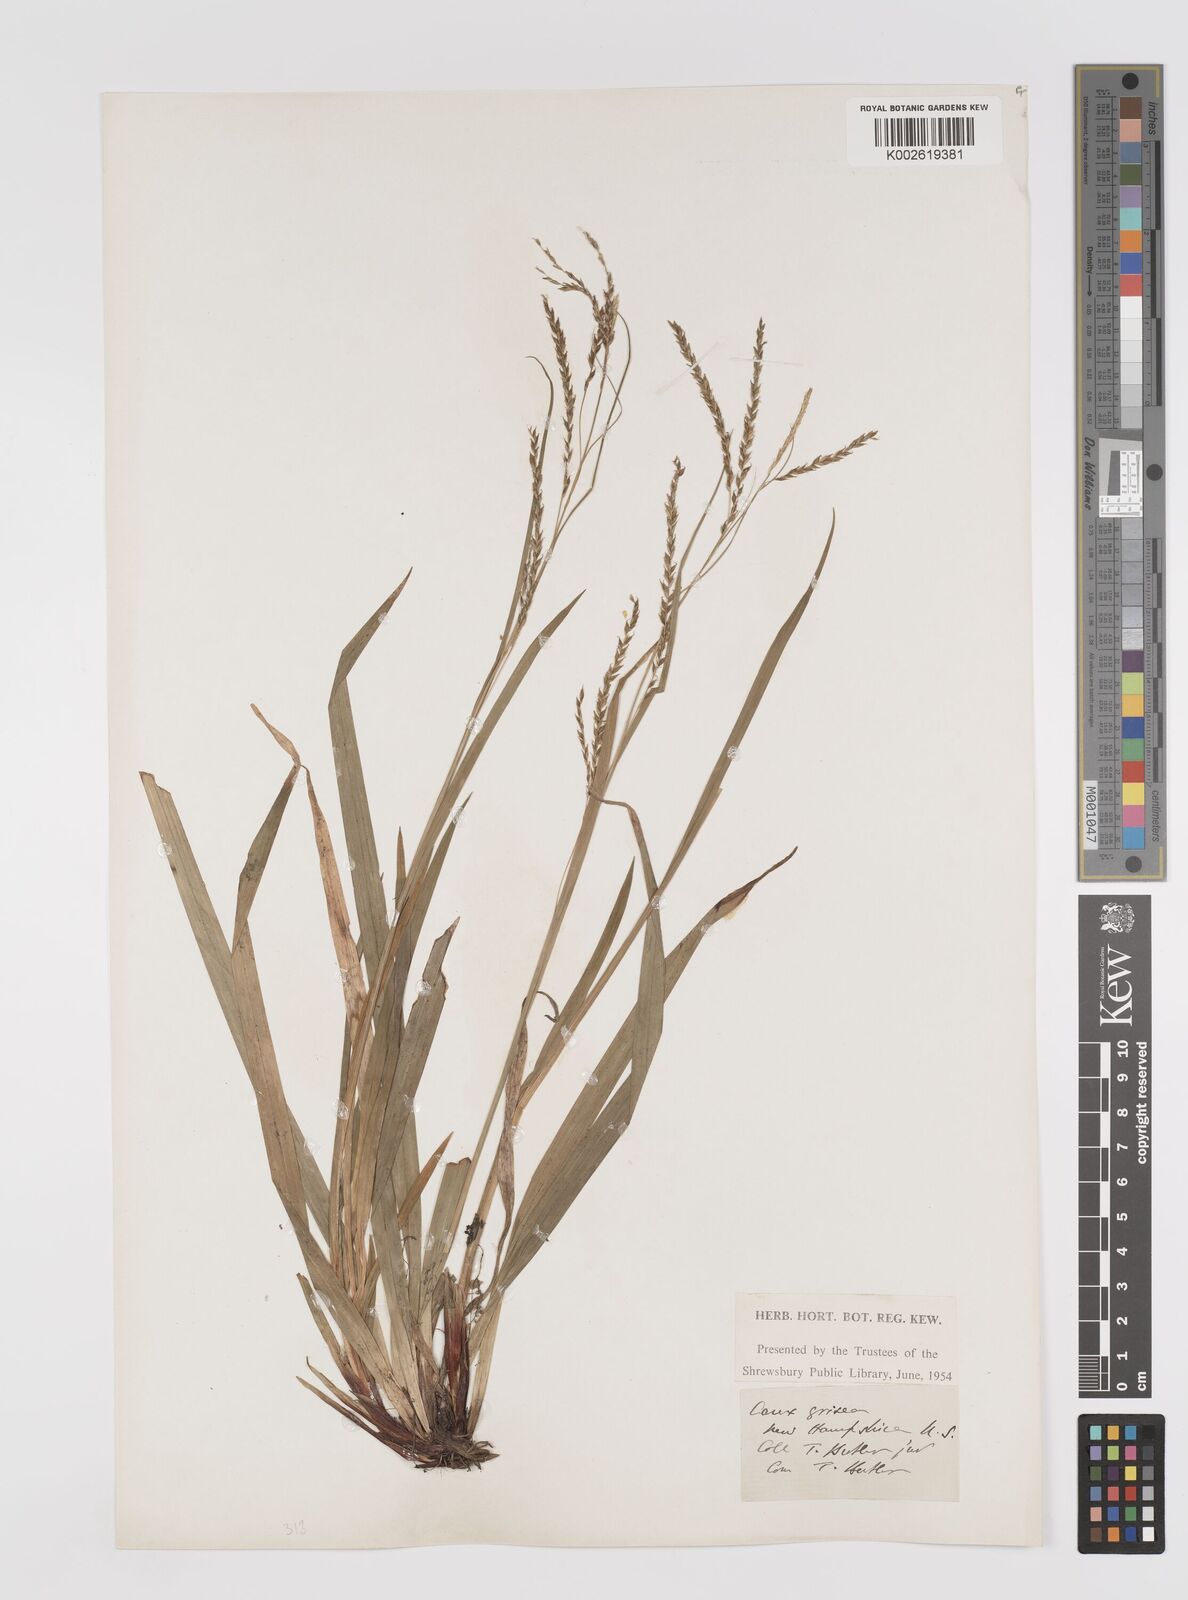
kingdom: Plantae
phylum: Tracheophyta
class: Liliopsida
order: Poales
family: Cyperaceae
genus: Carex
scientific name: Carex grisea
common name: Eastern narrow-leaved sedge
